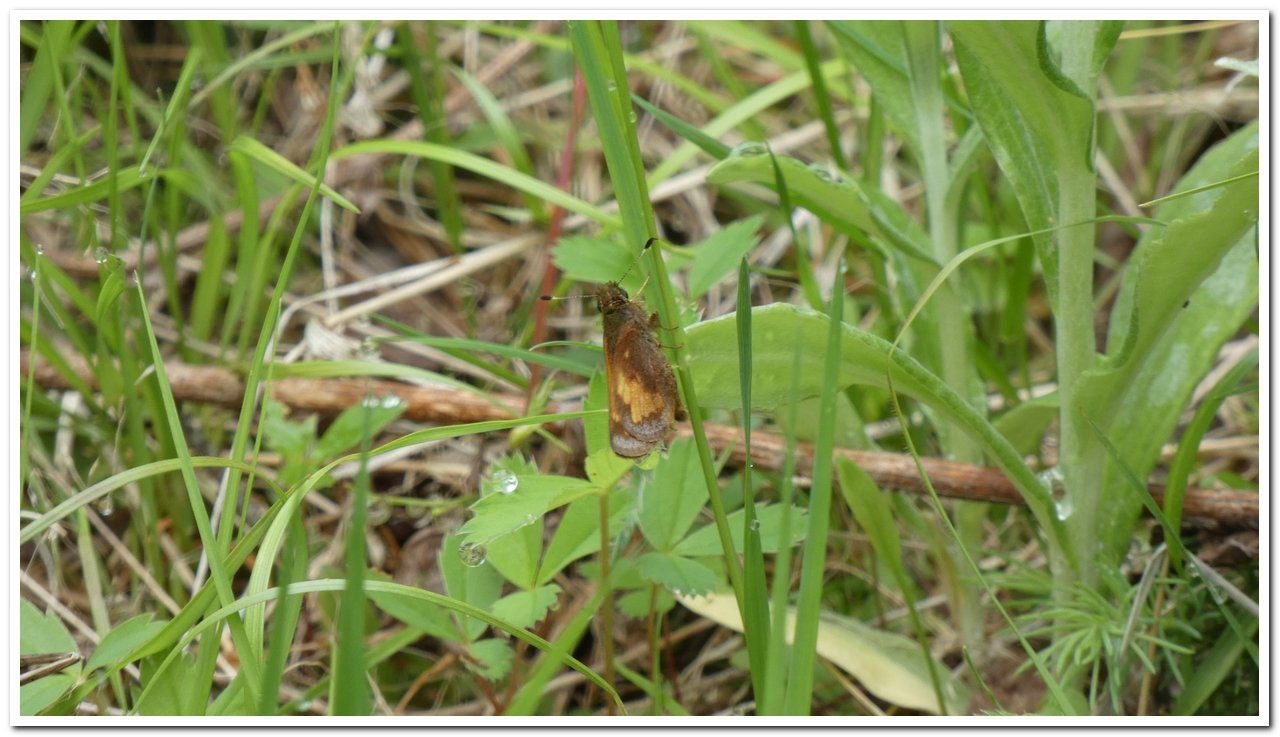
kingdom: Animalia
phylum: Arthropoda
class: Insecta
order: Lepidoptera
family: Hesperiidae
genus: Lon
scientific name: Lon hobomok
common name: Hobomok Skipper
